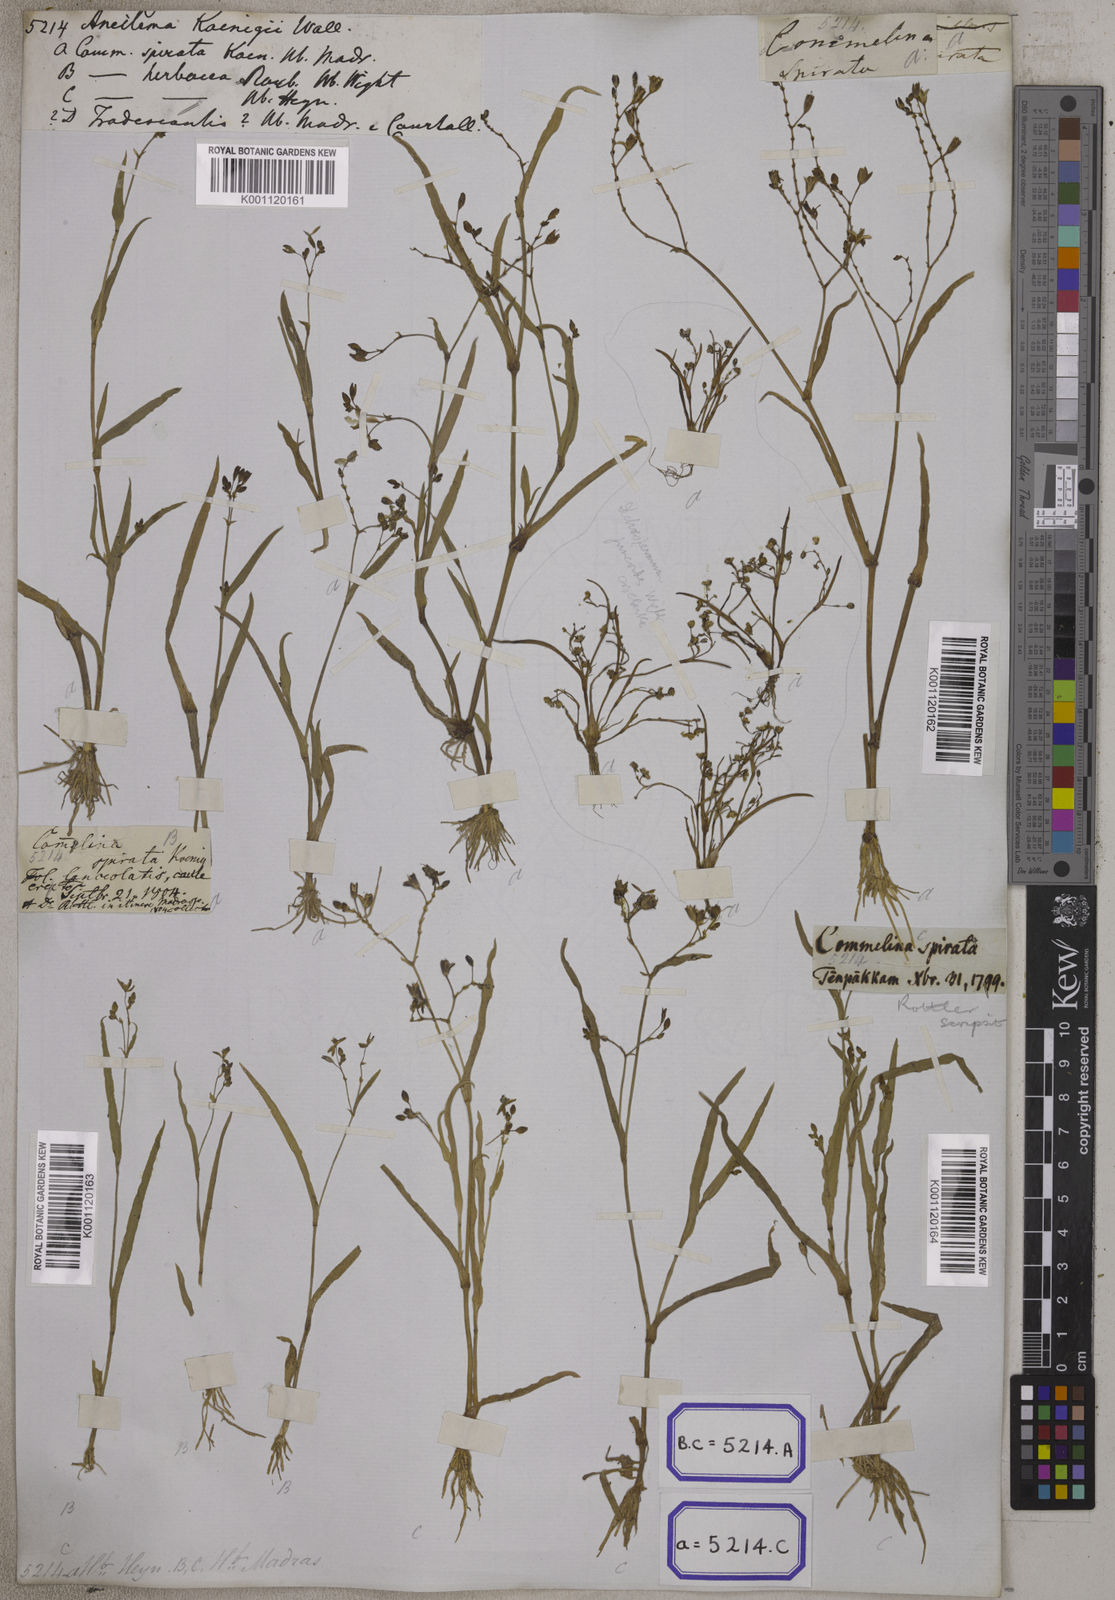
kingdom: Plantae
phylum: Tracheophyta
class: Liliopsida
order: Commelinales
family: Commelinaceae
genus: Aneilema
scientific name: Aneilema
